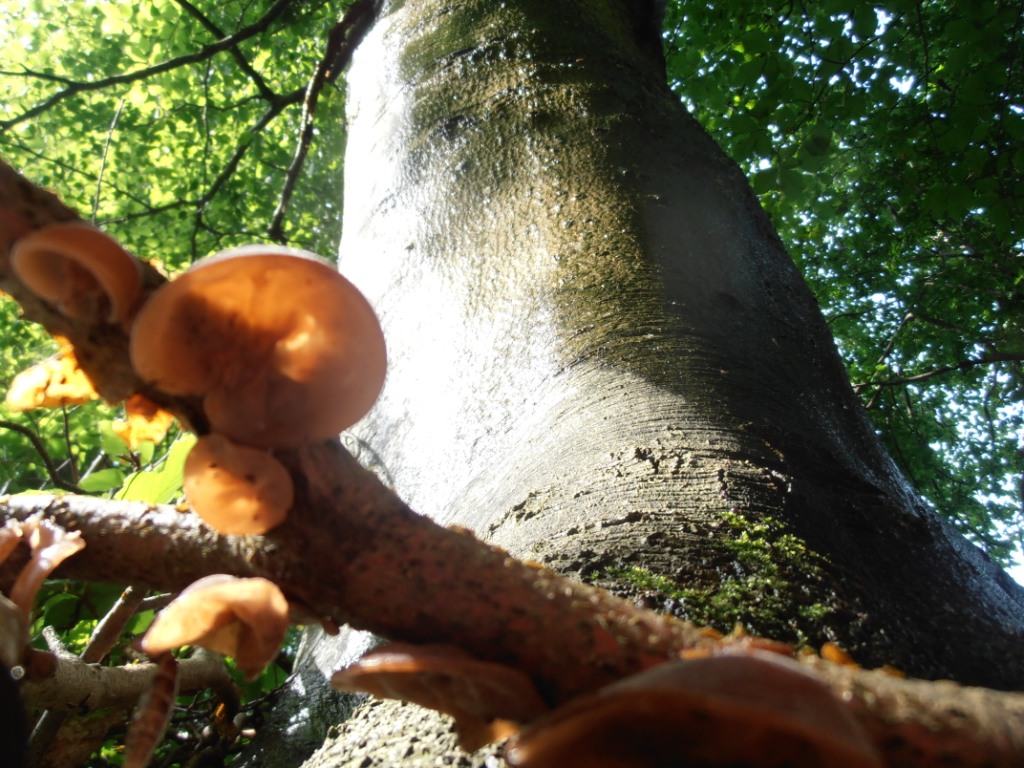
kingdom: Fungi
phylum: Basidiomycota
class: Agaricomycetes
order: Auriculariales
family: Auriculariaceae
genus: Auricularia
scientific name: Auricularia auricula-judae
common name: almindelig judasøre
